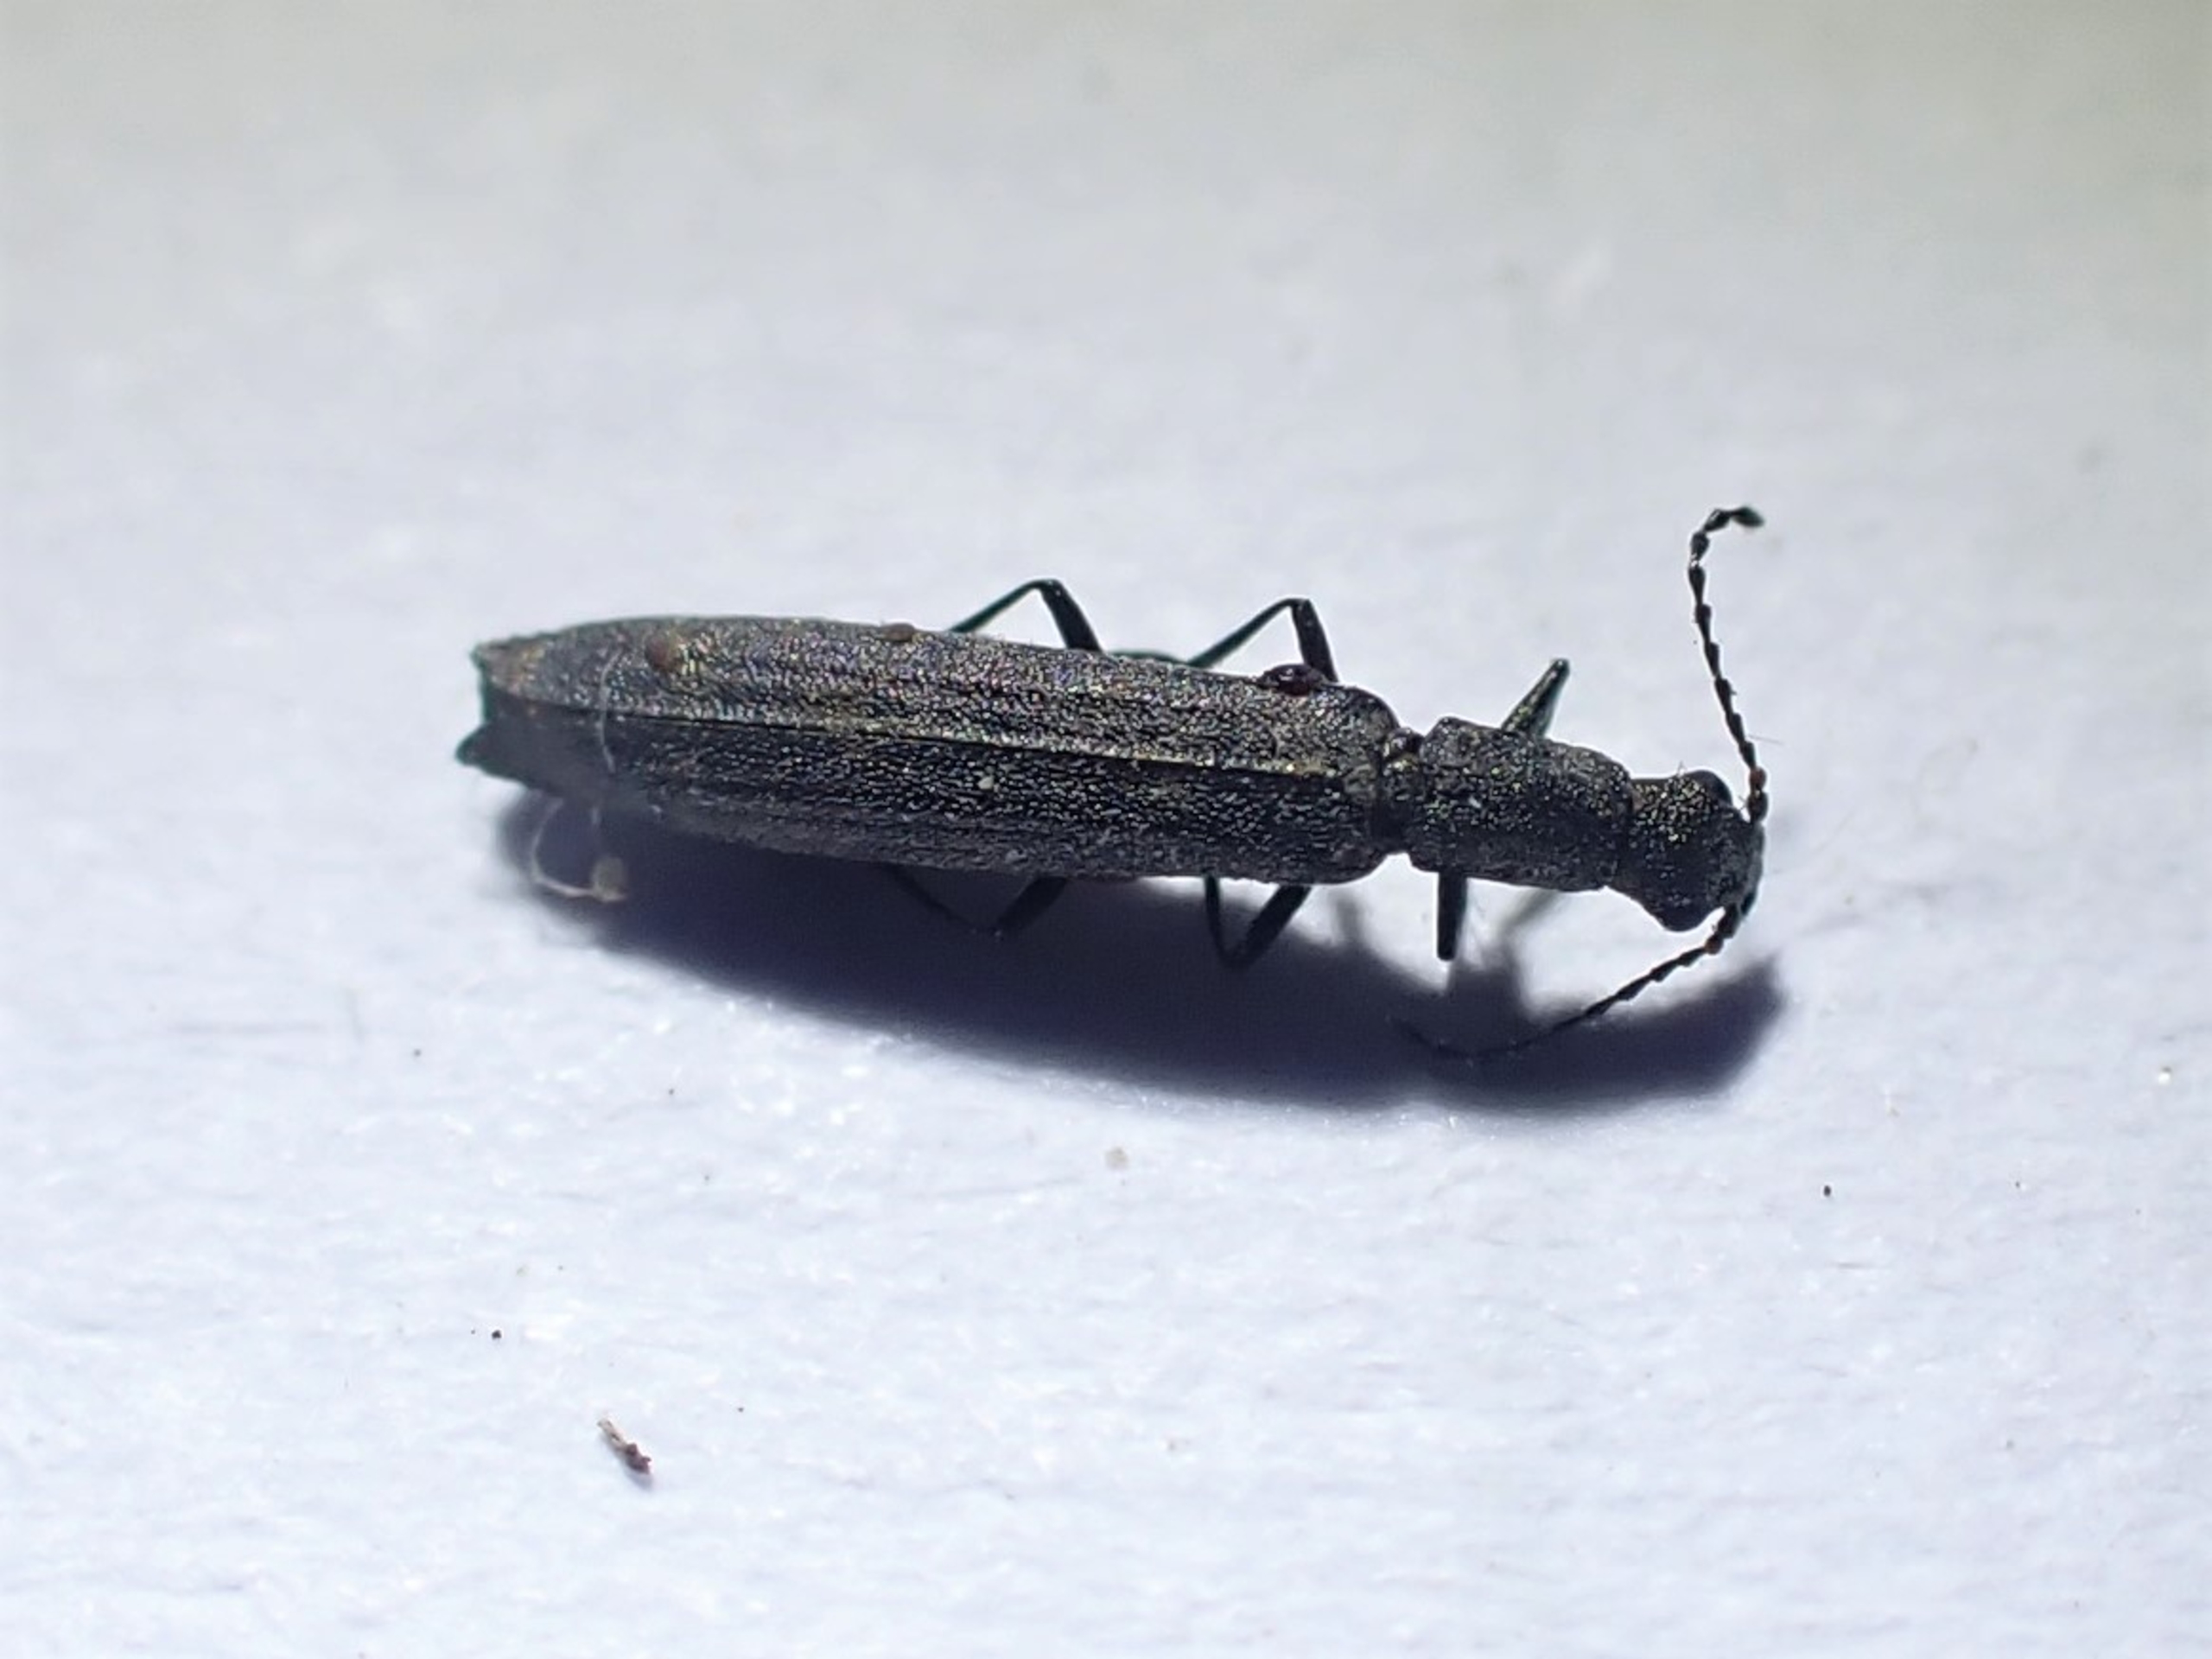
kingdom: Animalia
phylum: Arthropoda
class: Insecta
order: Coleoptera
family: Melyridae
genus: Dolichosoma
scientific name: Dolichosoma lineare
